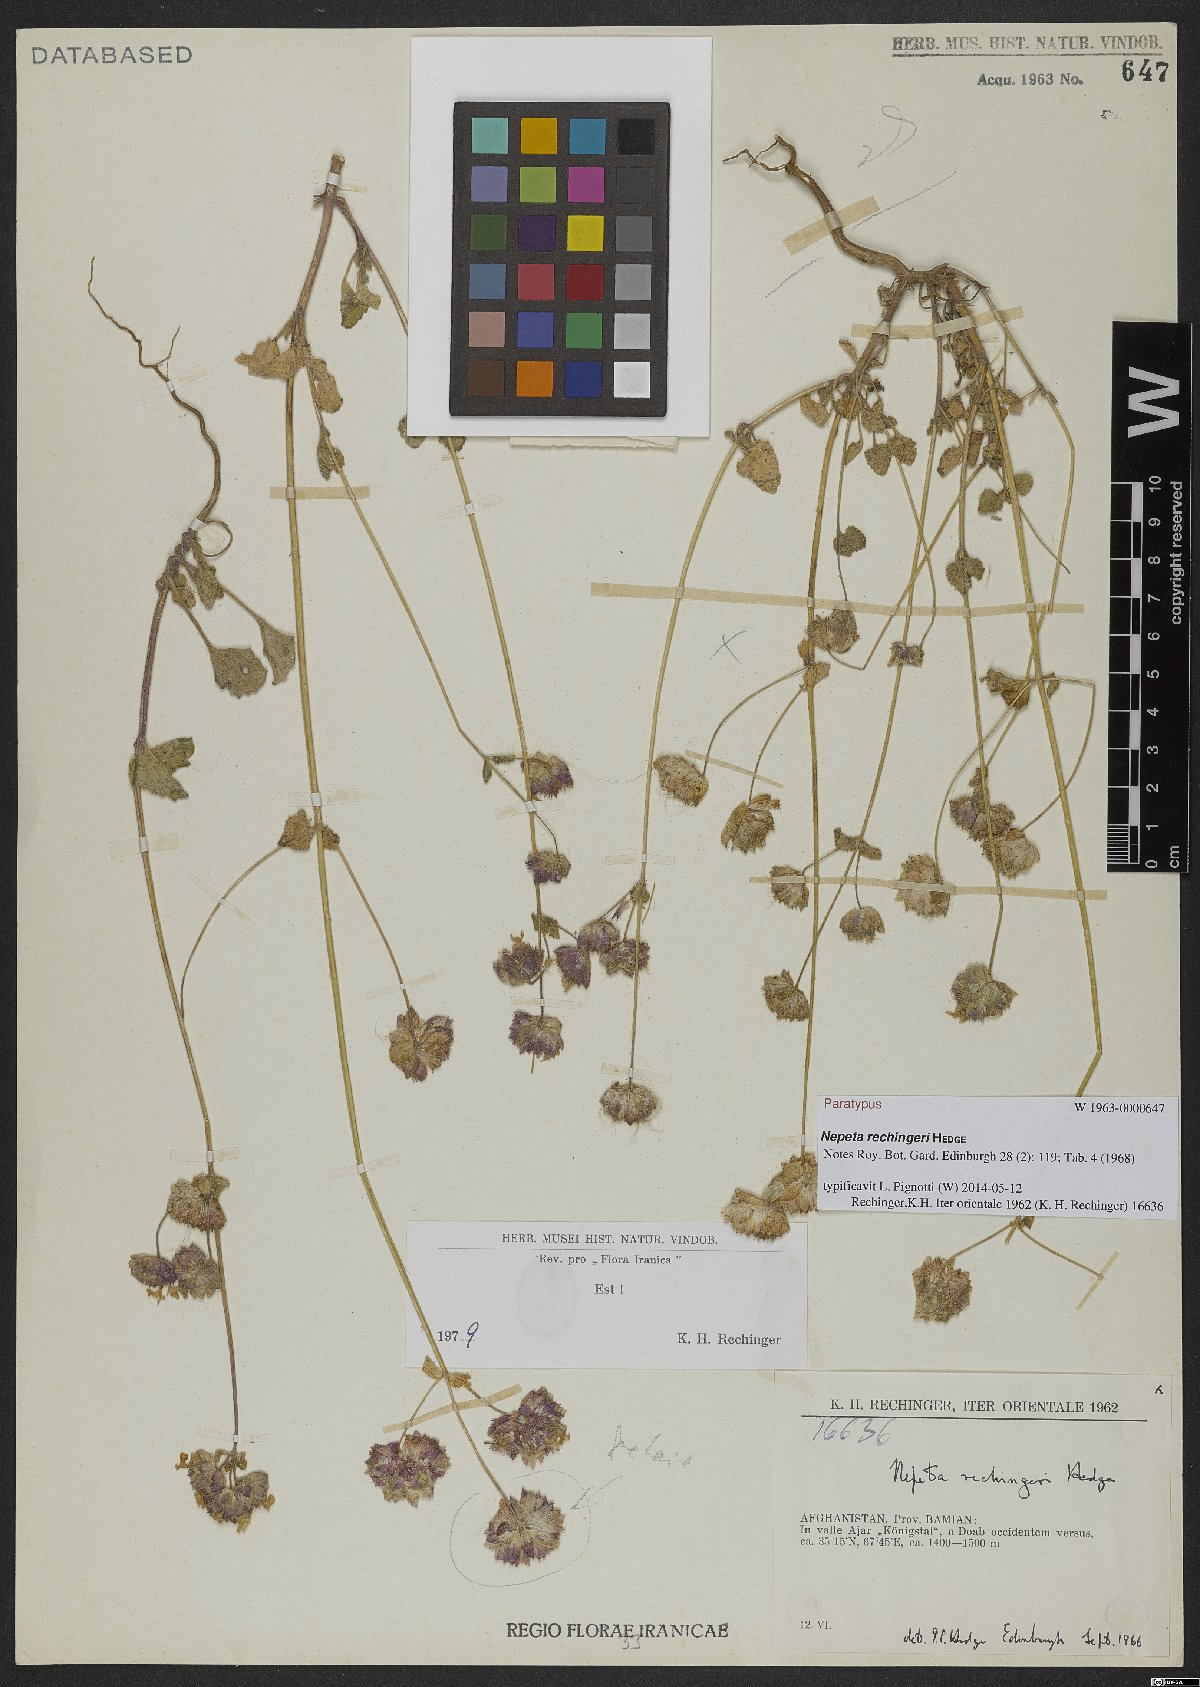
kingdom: Plantae
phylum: Tracheophyta
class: Magnoliopsida
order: Lamiales
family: Lamiaceae
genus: Nepeta
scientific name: Nepeta rechingeri
